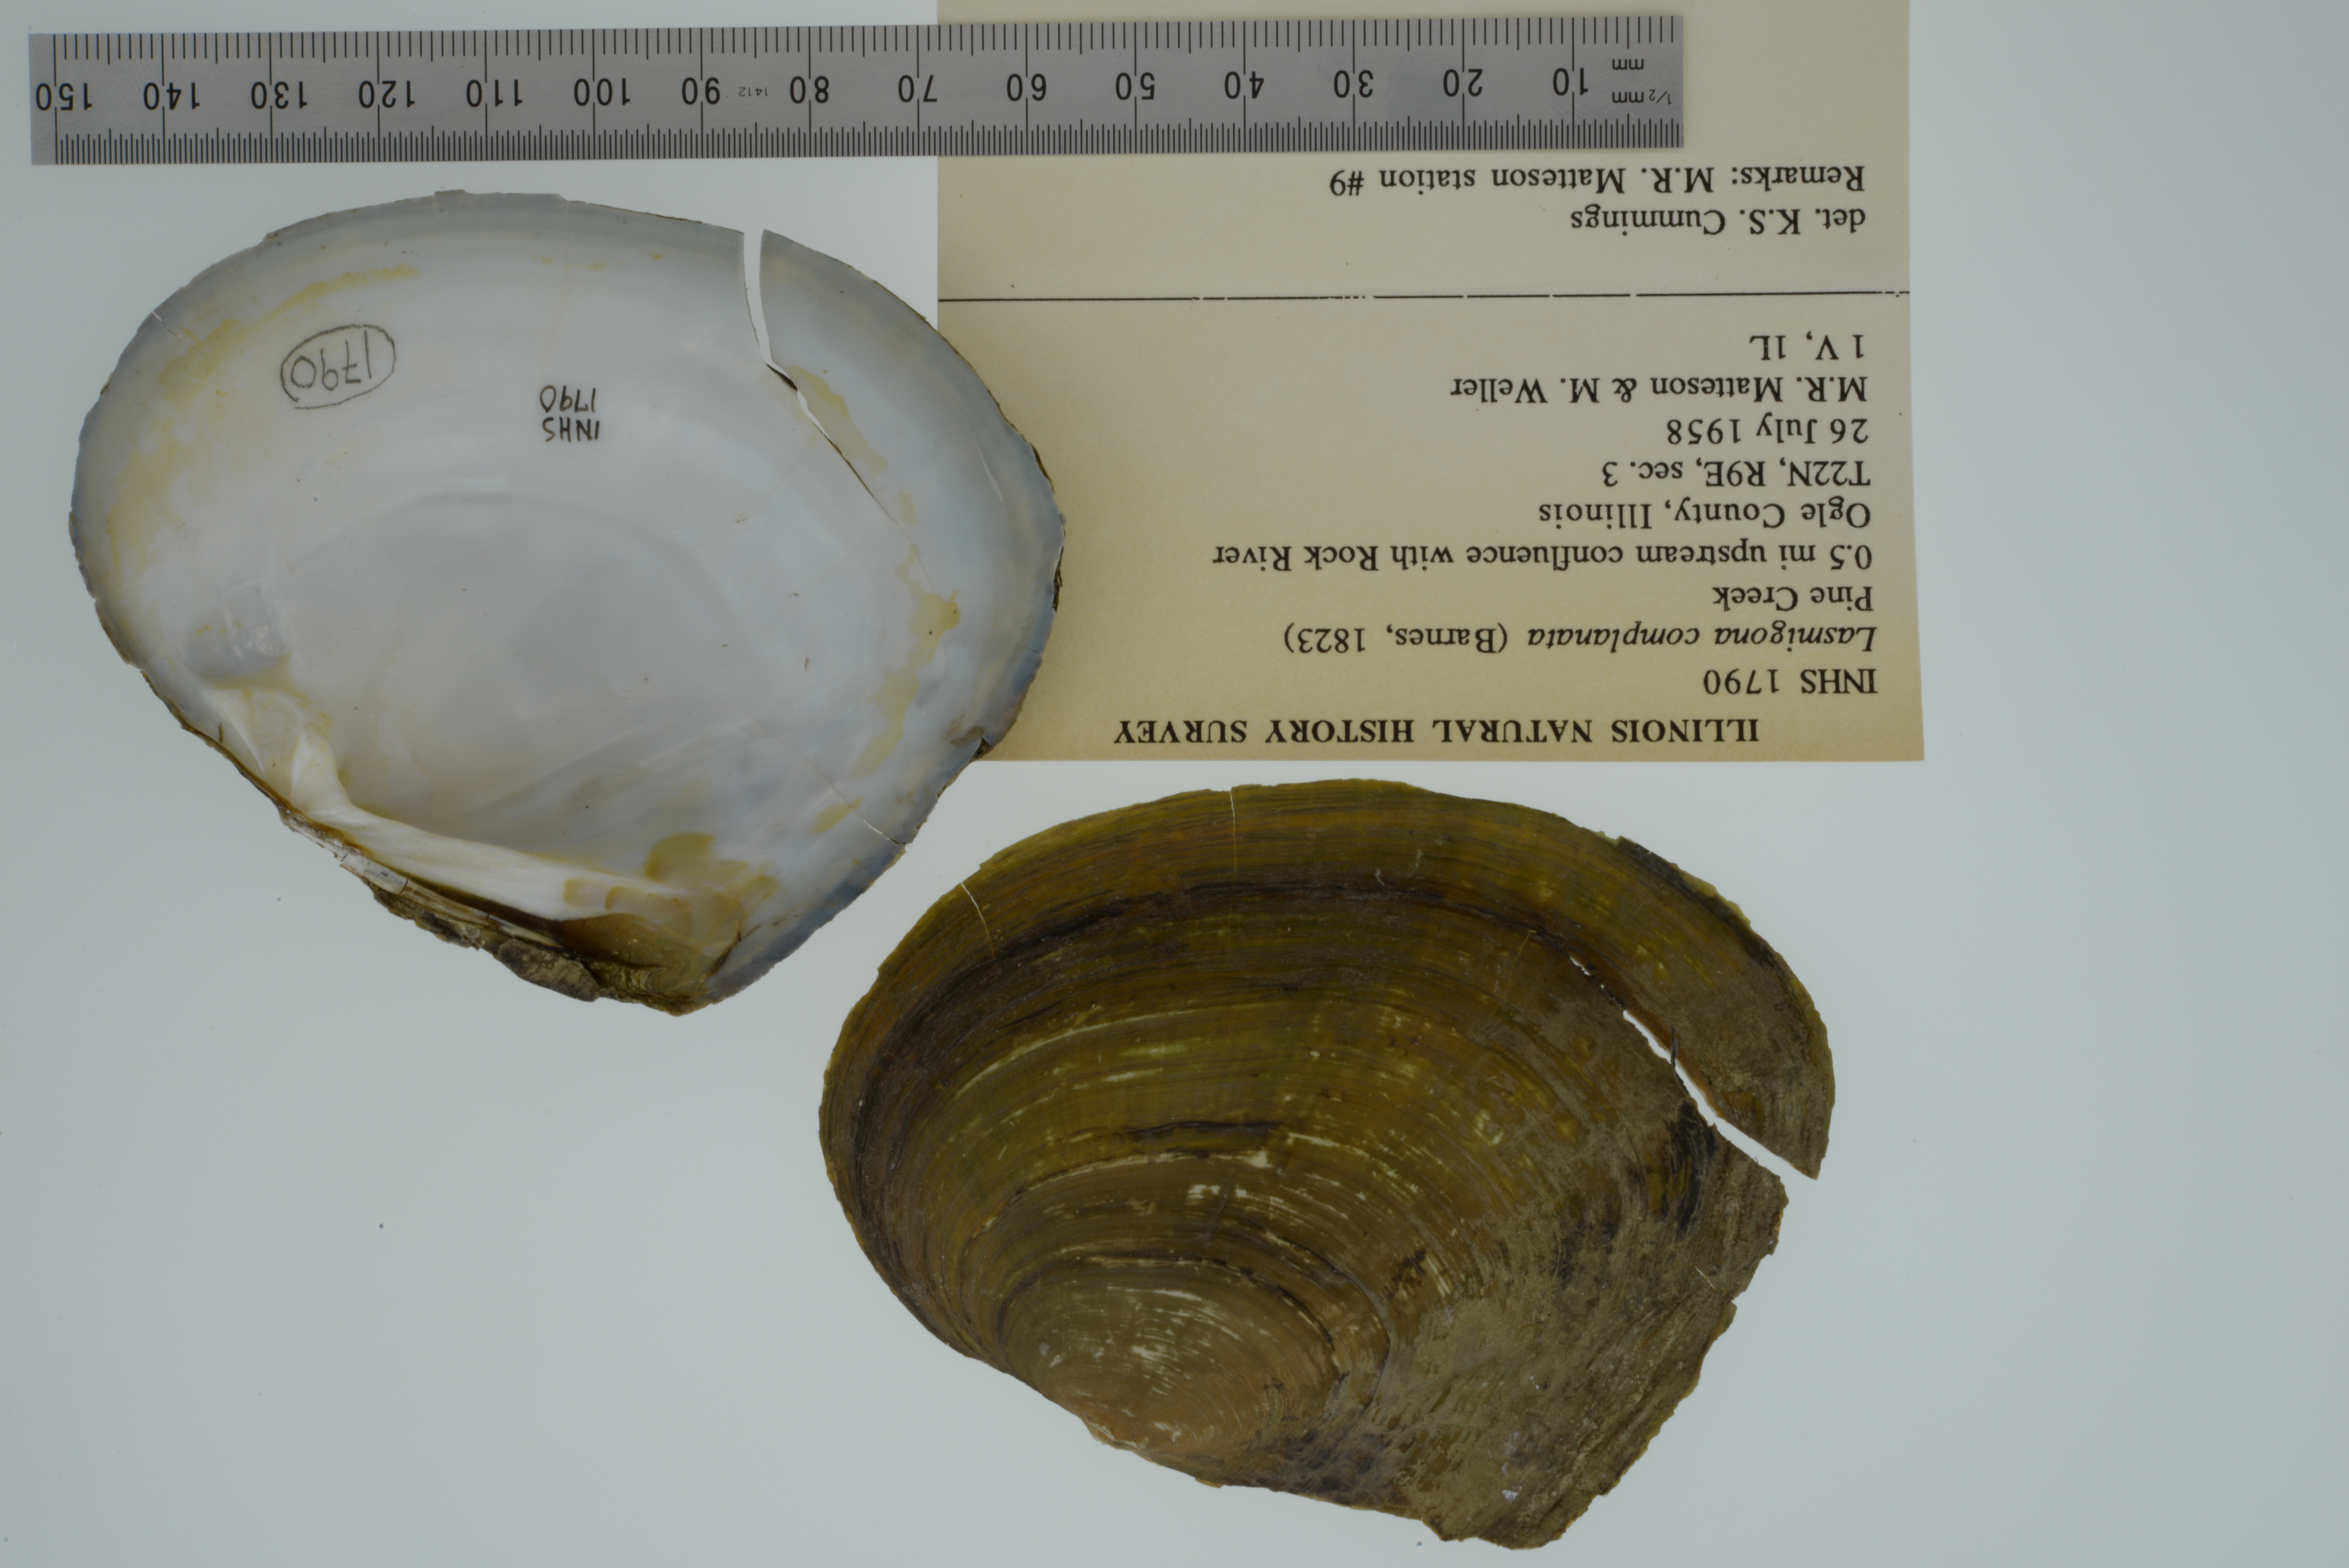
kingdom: Animalia
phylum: Mollusca
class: Bivalvia
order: Unionida
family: Unionidae
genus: Lasmigona
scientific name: Lasmigona complanata
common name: White heelsplitter
